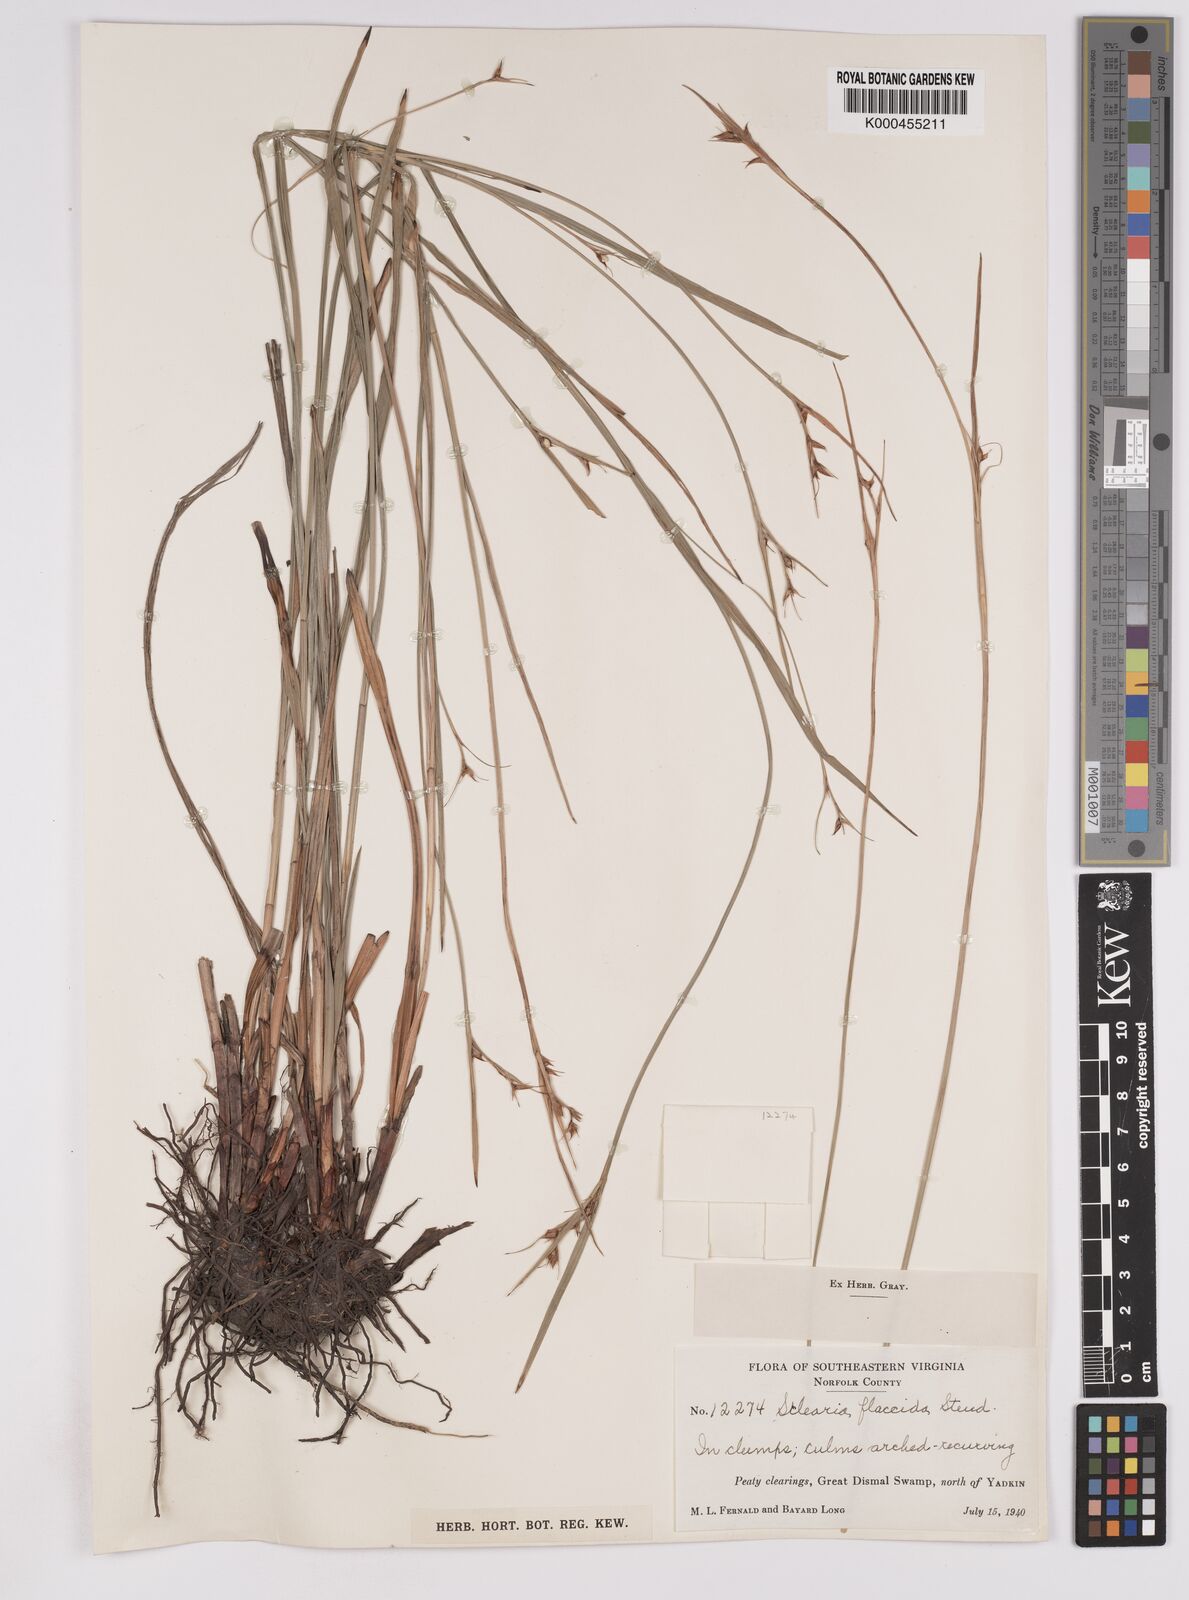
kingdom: Plantae
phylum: Tracheophyta
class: Liliopsida
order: Poales
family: Cyperaceae
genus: Scleria
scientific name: Scleria triglomerata
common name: Whip nutrush
